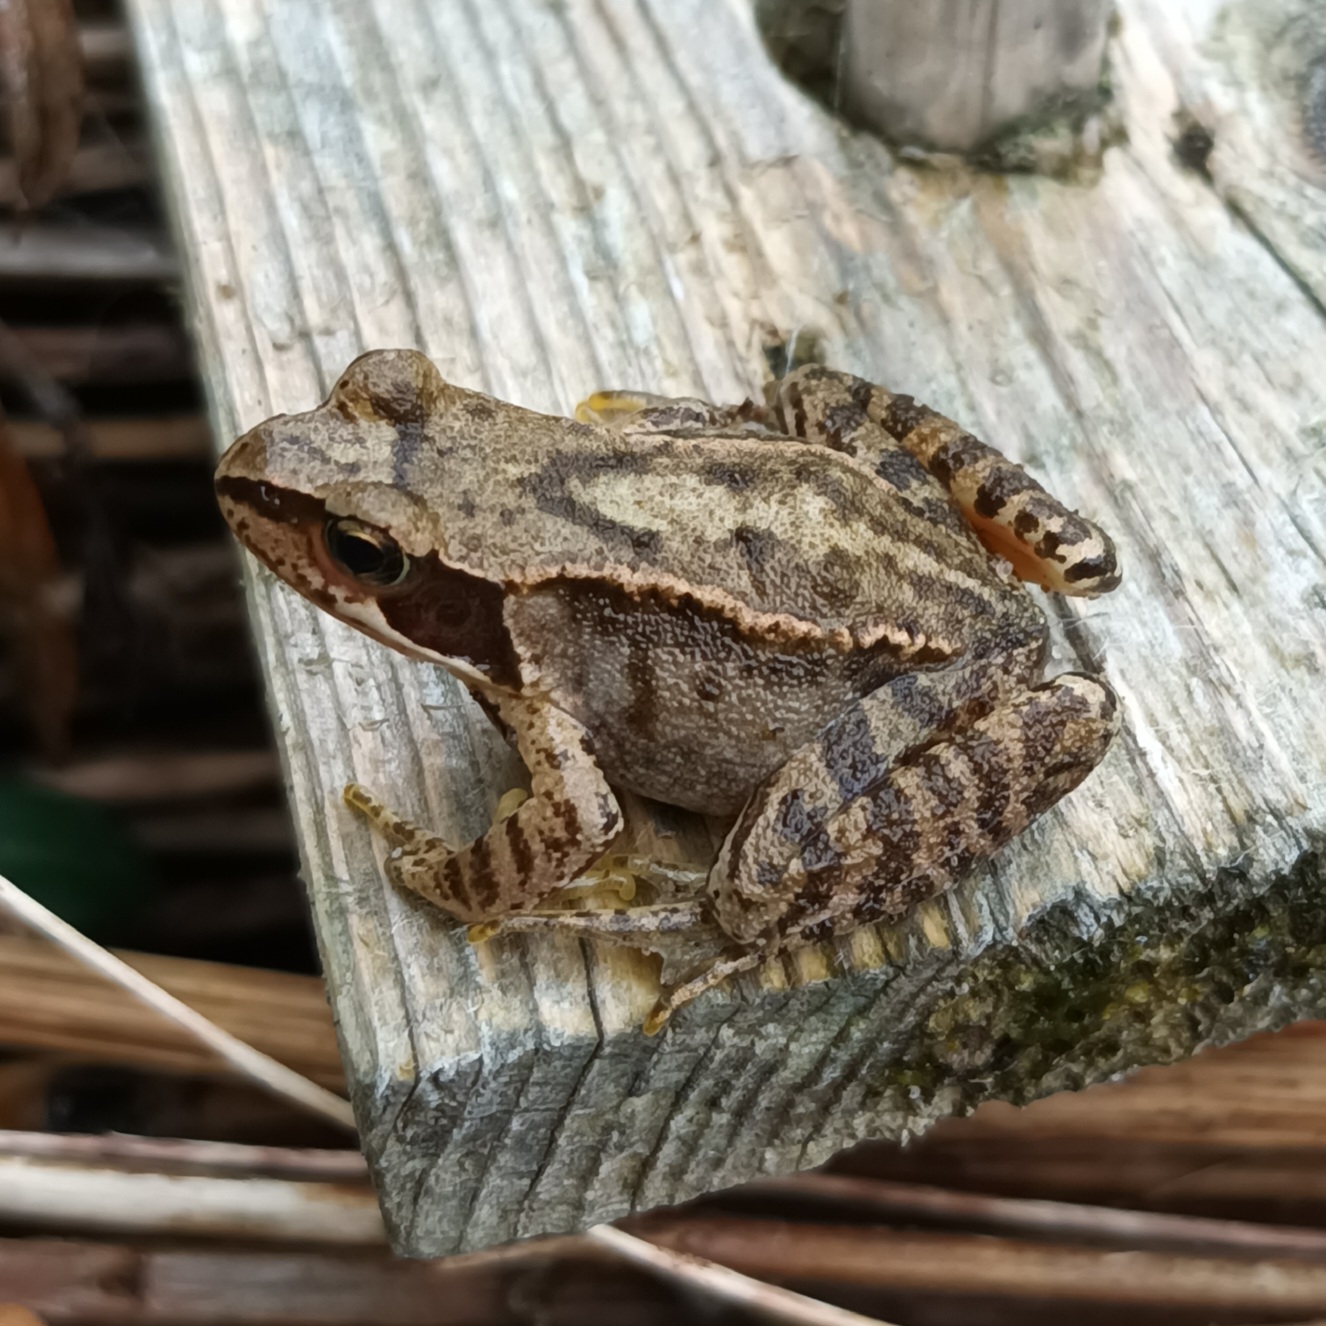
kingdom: Animalia
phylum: Chordata
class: Amphibia
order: Anura
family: Ranidae
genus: Rana
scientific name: Rana temporaria
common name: Butsnudet frø
